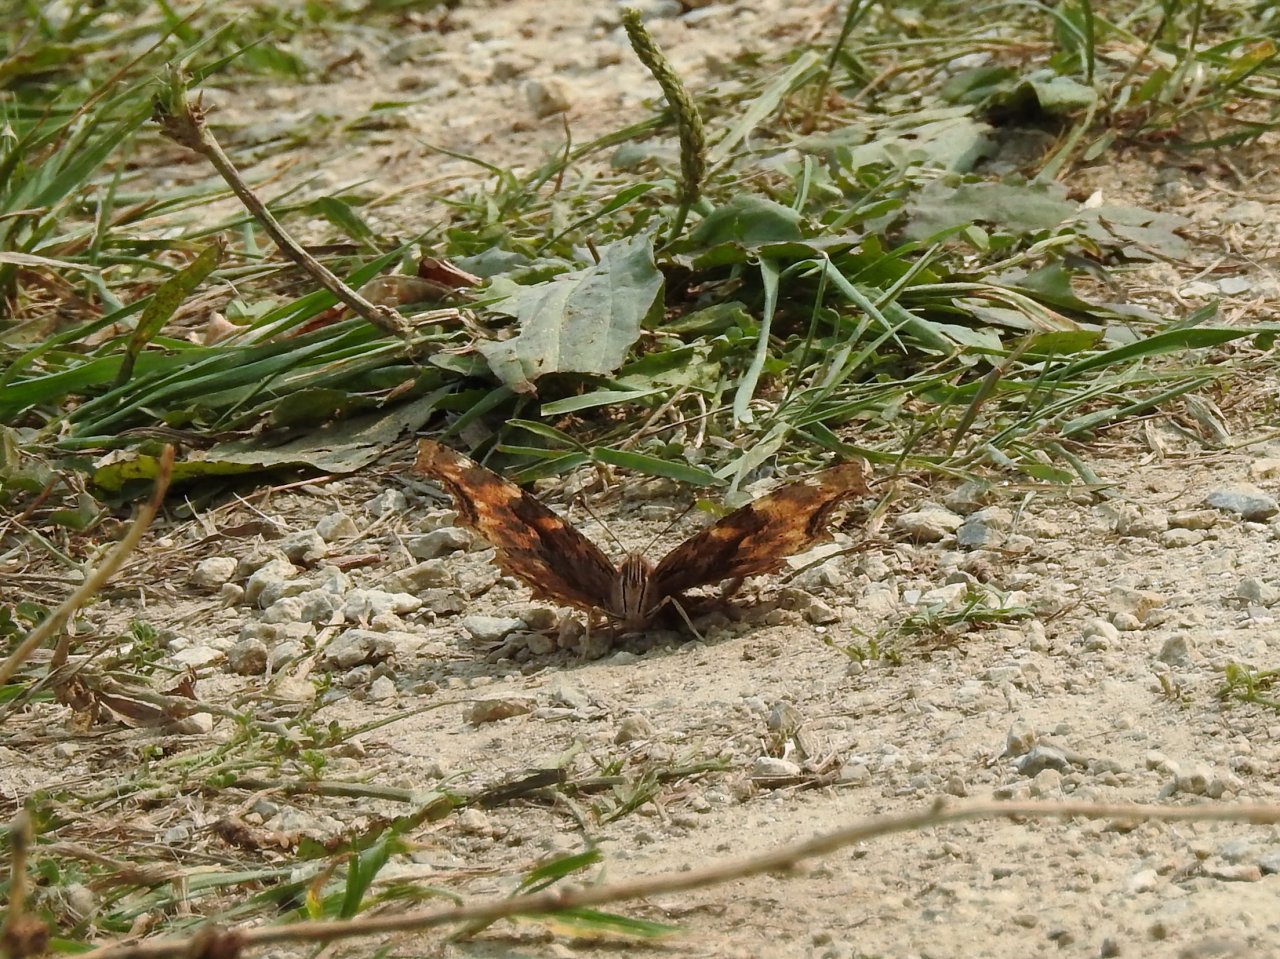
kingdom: Animalia
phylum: Arthropoda
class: Insecta
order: Lepidoptera
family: Nymphalidae
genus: Polygonia
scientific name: Polygonia vaualbum
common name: Compton Tortoiseshell
